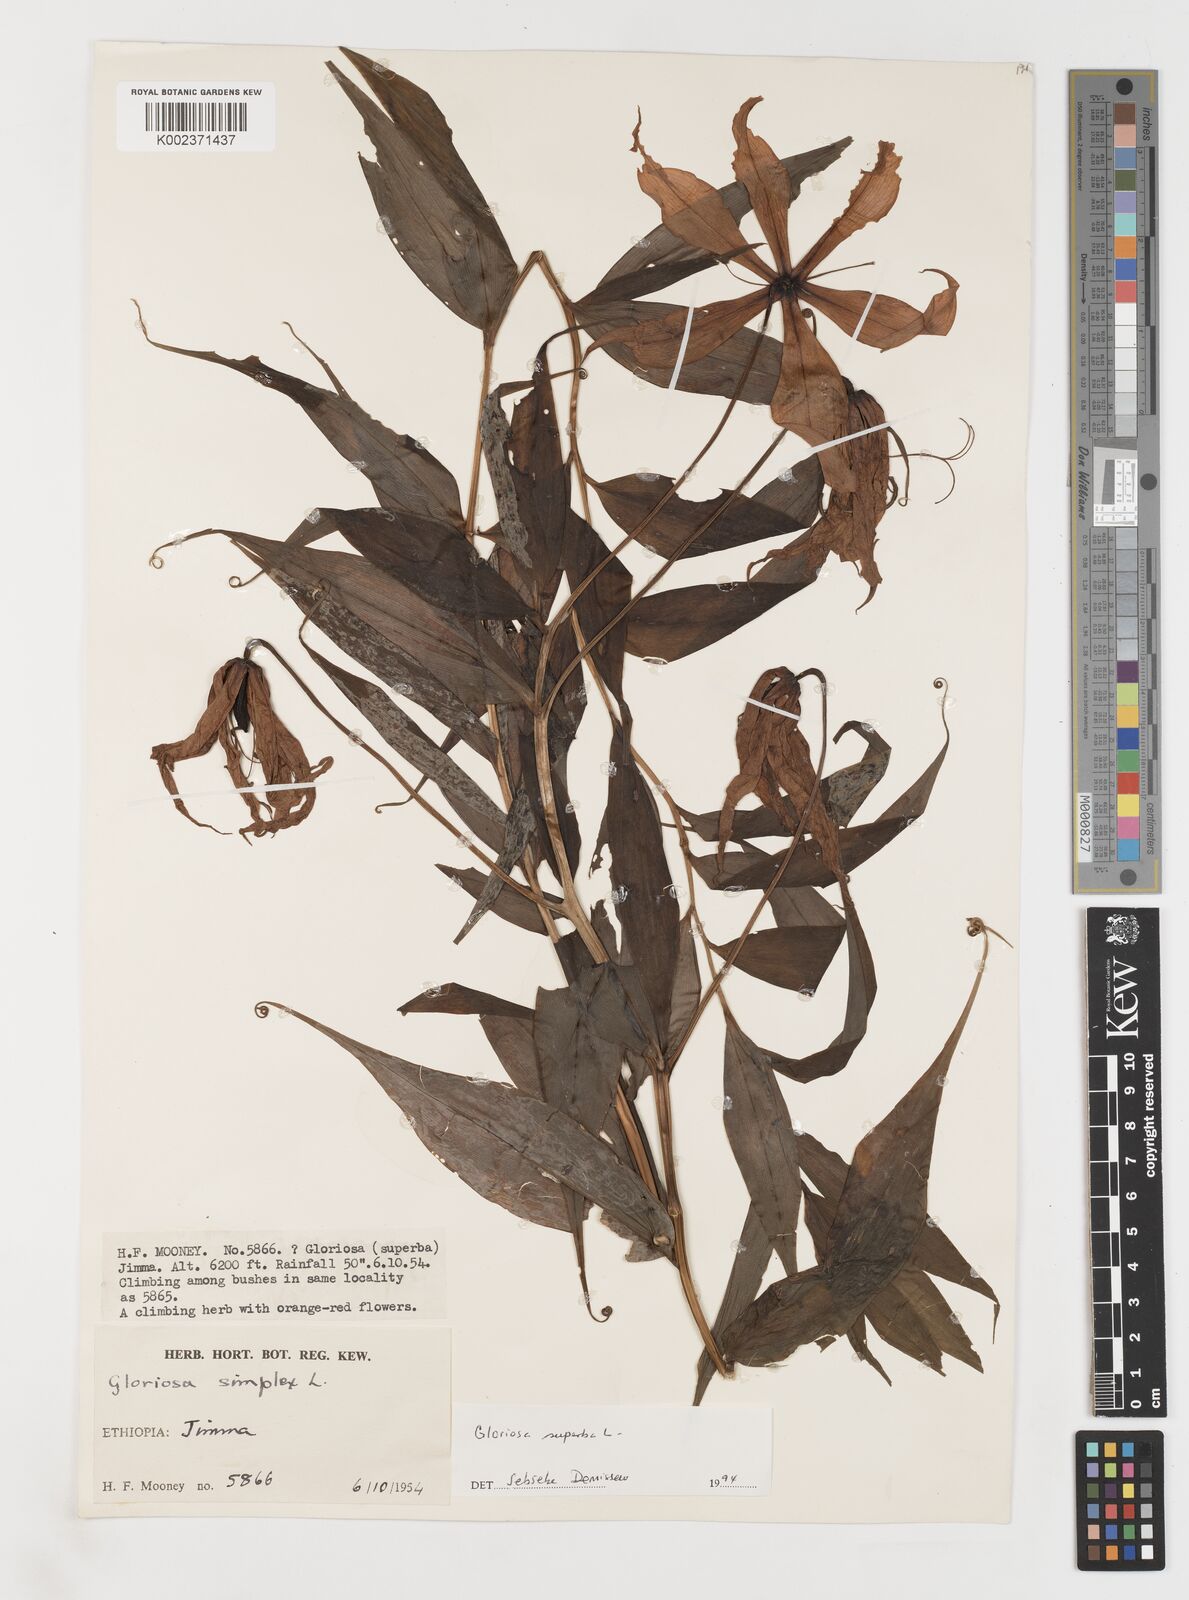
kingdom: Plantae
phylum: Tracheophyta
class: Liliopsida
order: Liliales
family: Colchicaceae
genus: Gloriosa
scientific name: Gloriosa simplex
